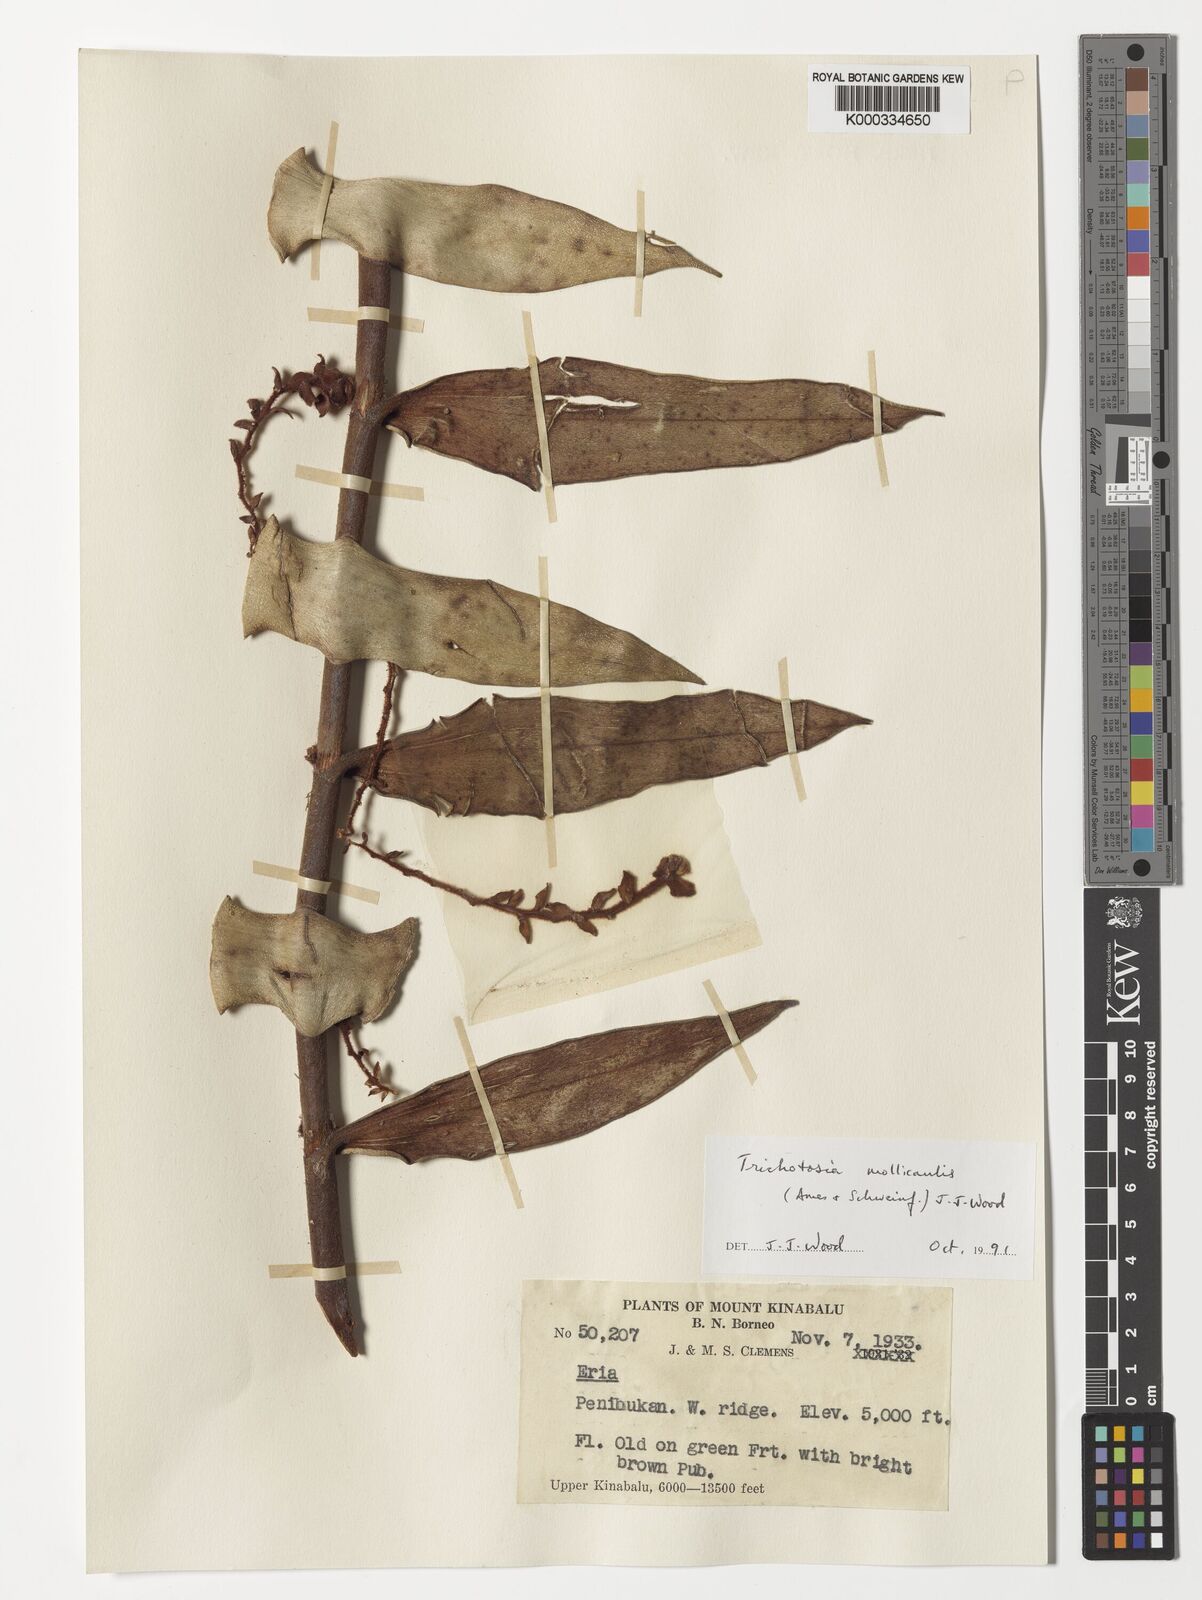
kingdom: Plantae
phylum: Tracheophyta
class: Liliopsida
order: Asparagales
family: Orchidaceae
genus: Trichotosia
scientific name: Trichotosia mollicaulis
